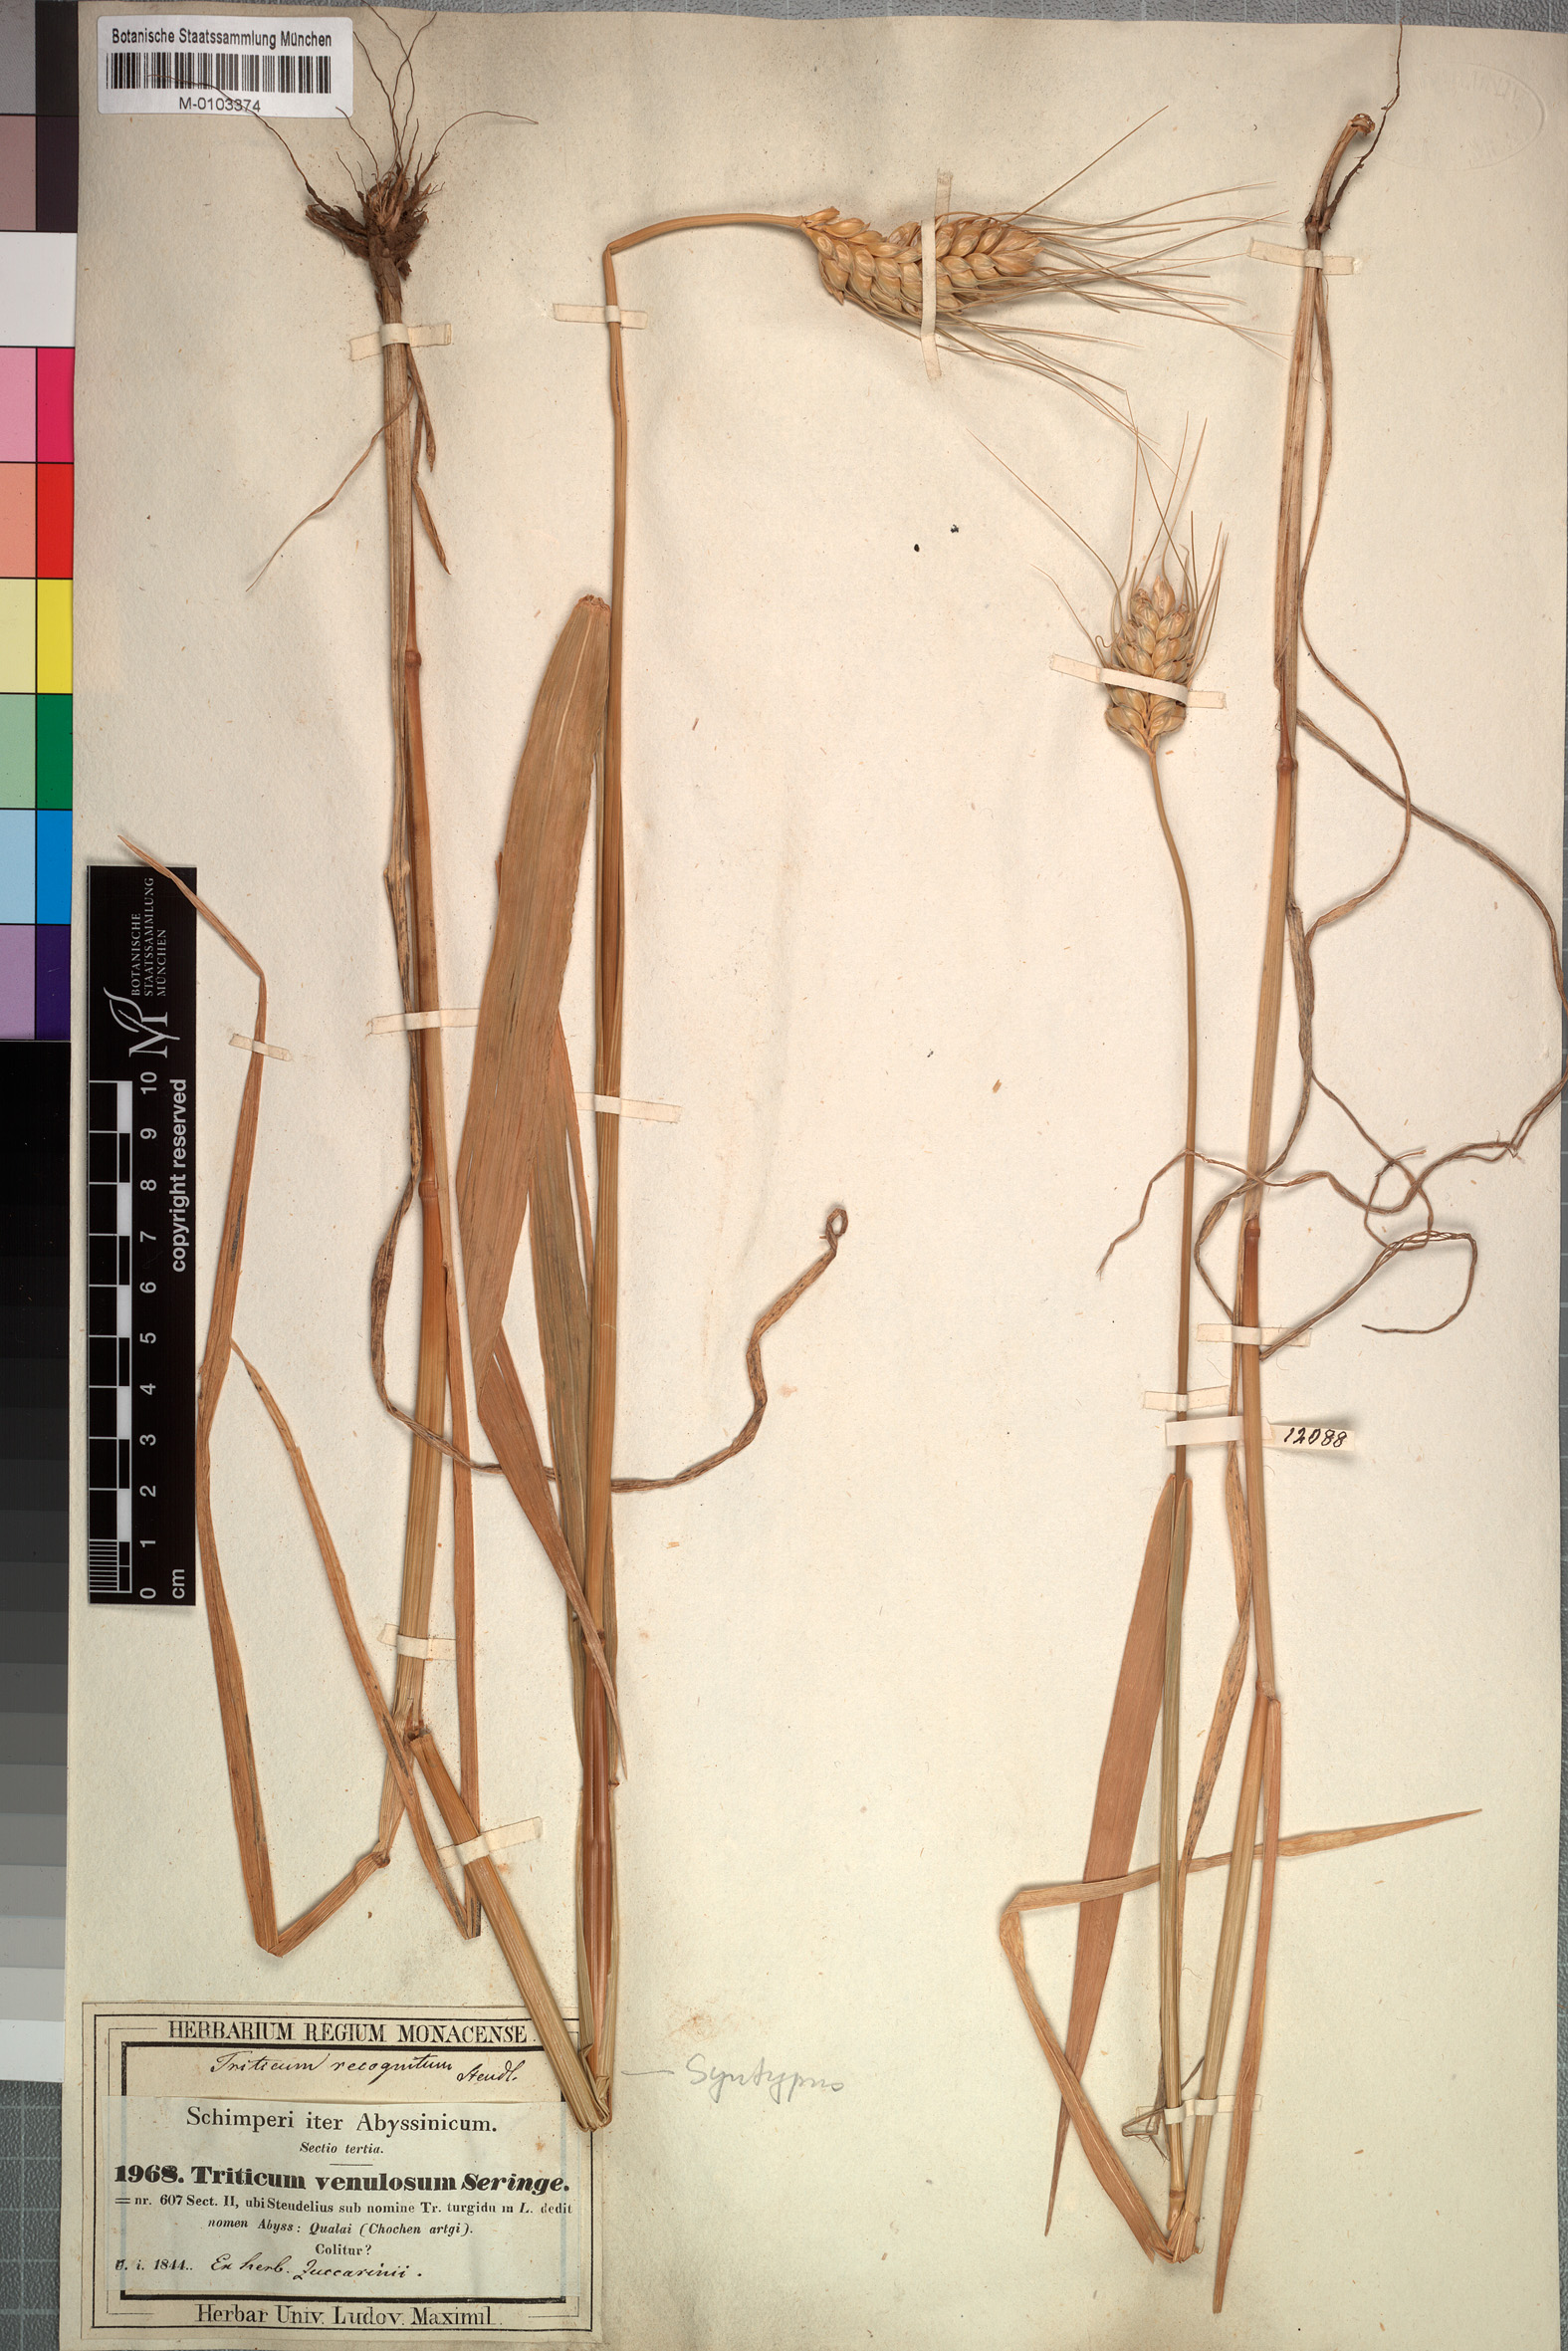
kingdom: Plantae
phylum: Tracheophyta
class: Liliopsida
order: Poales
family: Poaceae
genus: Triticum
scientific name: Triticum turgidum
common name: Rivet wheat
